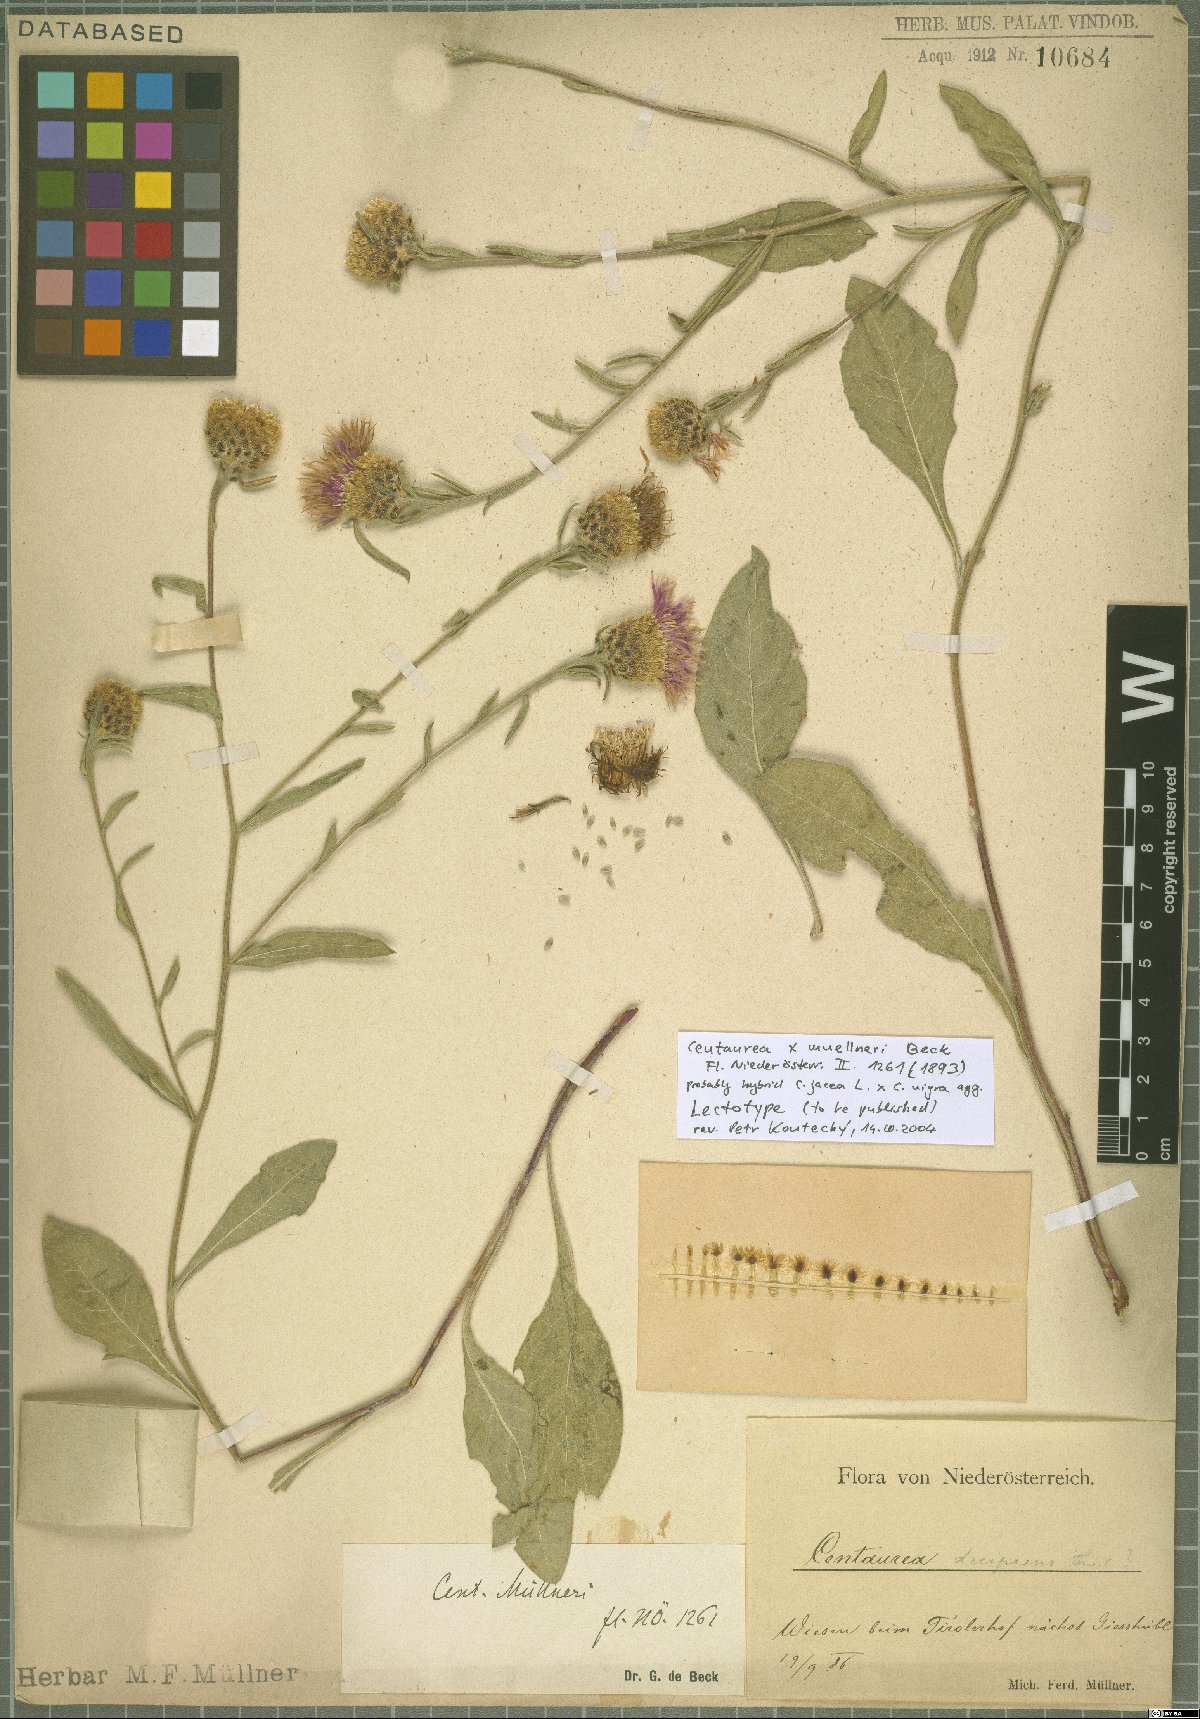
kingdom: Plantae
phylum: Tracheophyta
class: Magnoliopsida
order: Asterales
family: Asteraceae
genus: Centaurea
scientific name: Centaurea
